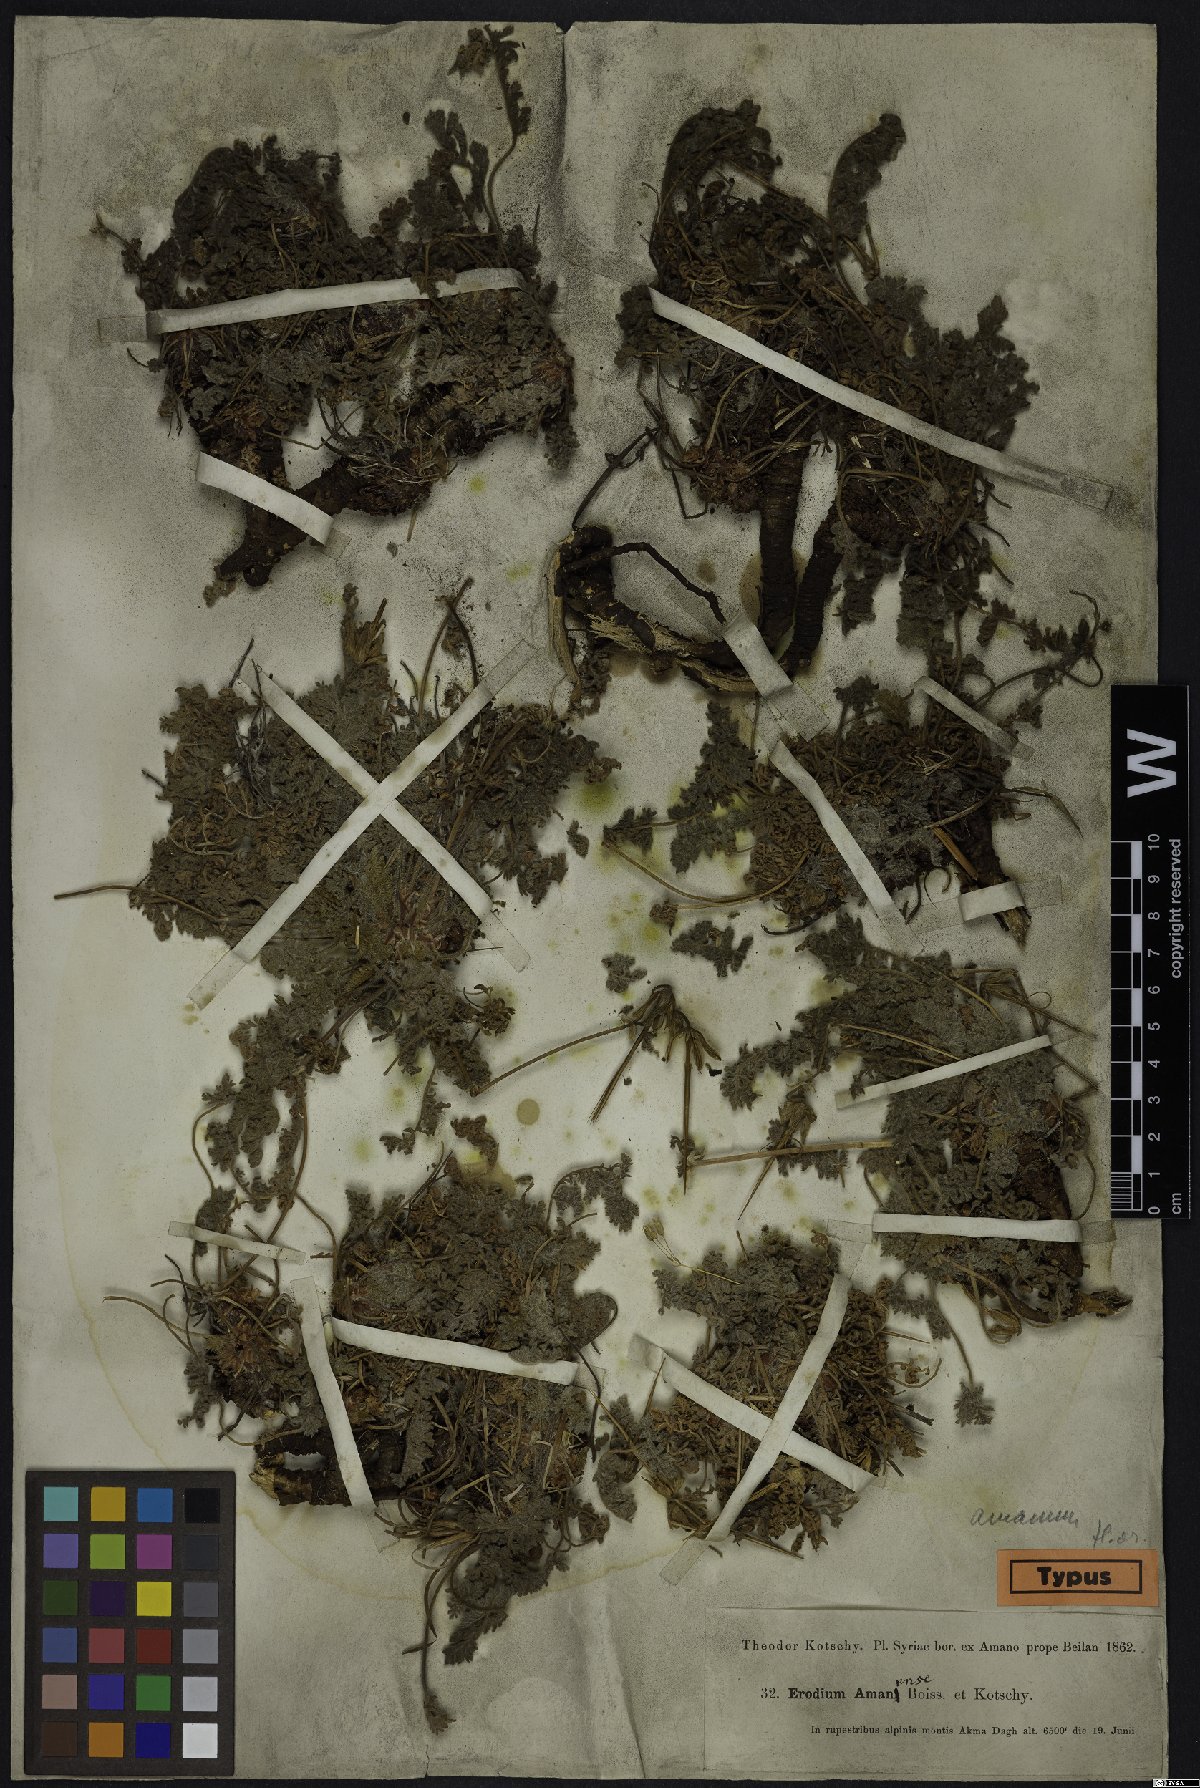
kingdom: Plantae
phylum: Tracheophyta
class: Magnoliopsida
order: Geraniales
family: Geraniaceae
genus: Erodium
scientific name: Erodium trichomanifolium
